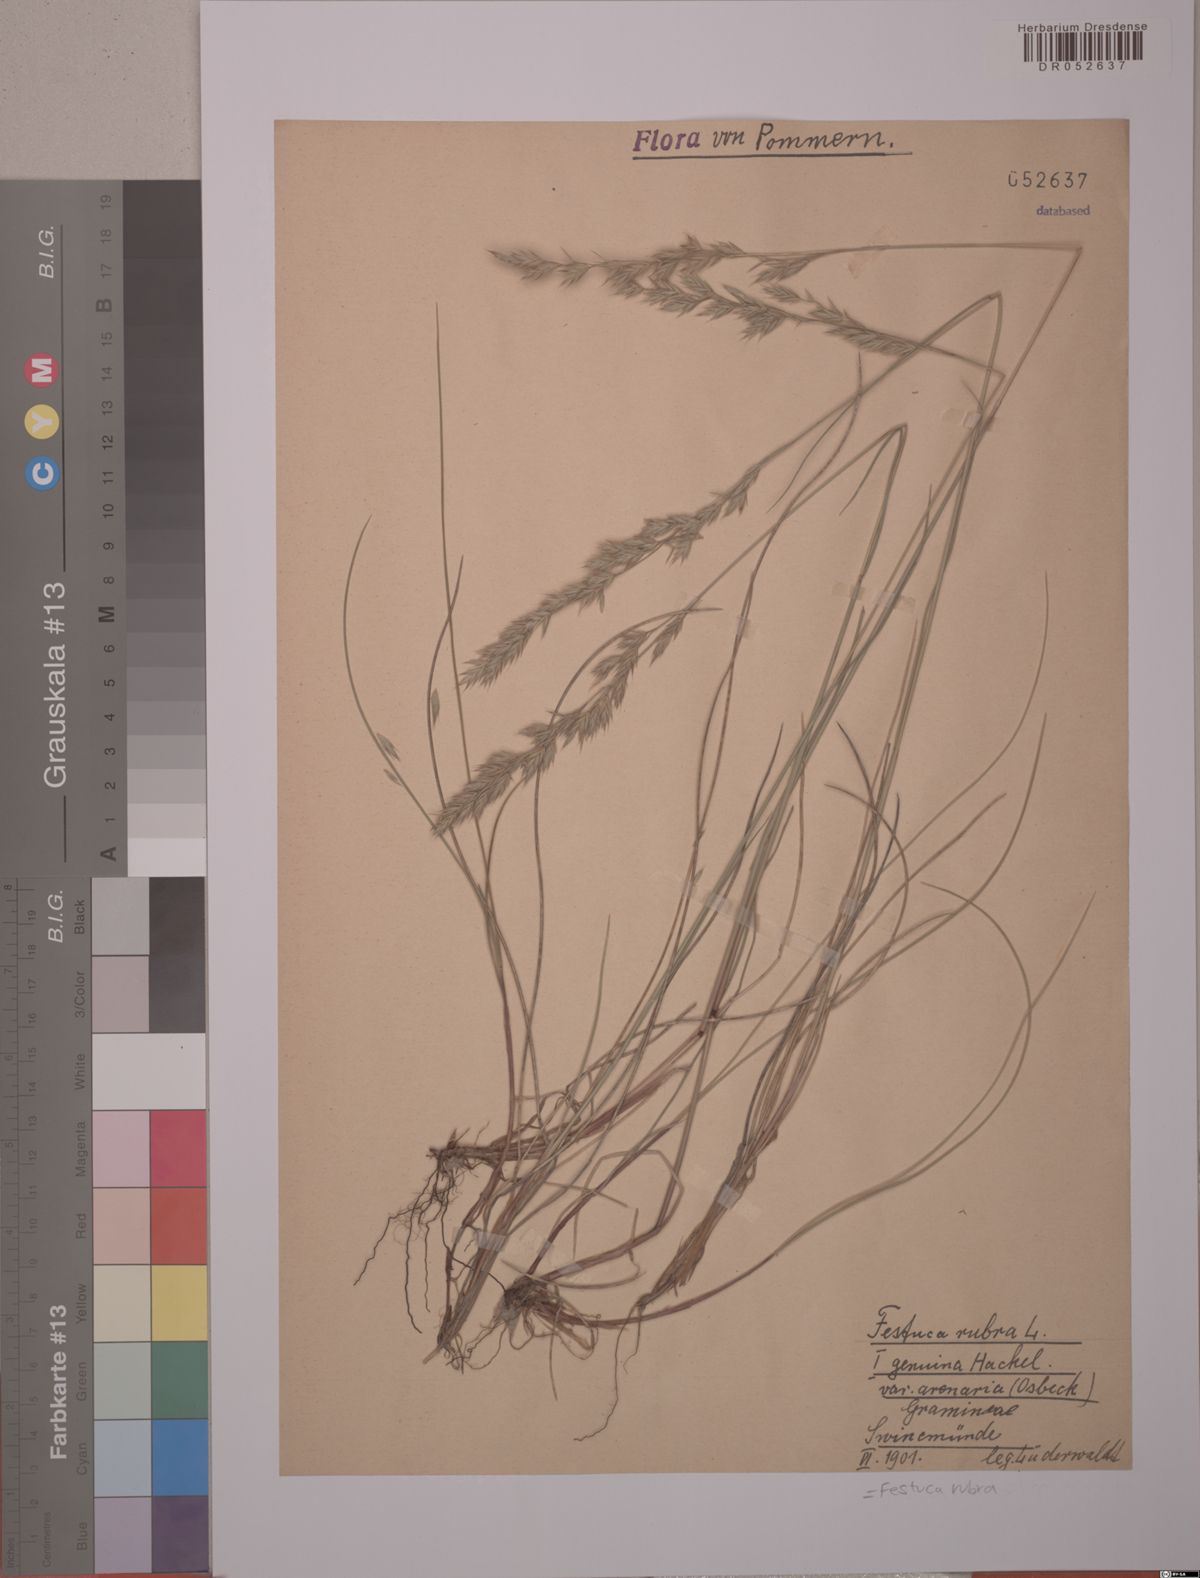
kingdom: Plantae
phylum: Tracheophyta
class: Liliopsida
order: Poales
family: Poaceae
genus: Festuca
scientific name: Festuca rubra
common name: Red fescue
